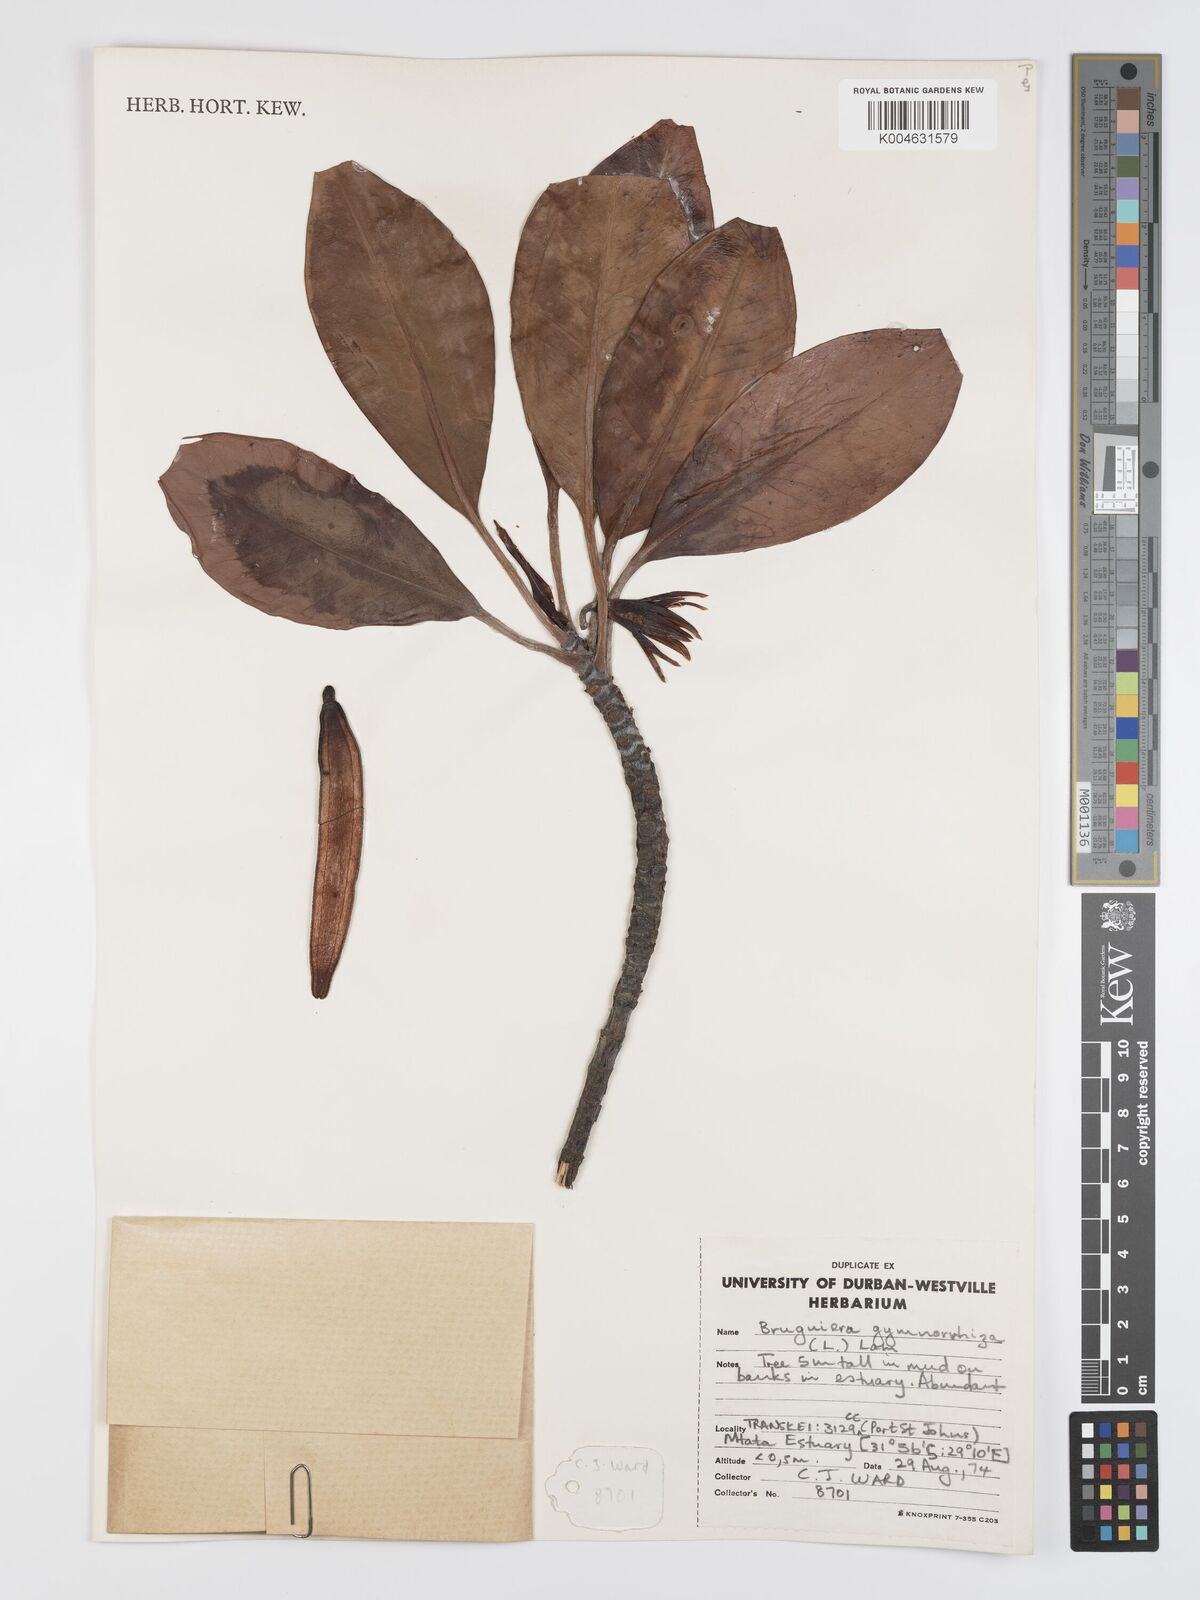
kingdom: Plantae
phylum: Tracheophyta
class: Magnoliopsida
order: Malpighiales
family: Rhizophoraceae
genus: Bruguiera
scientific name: Bruguiera gymnorhiza
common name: Oriental mangrove
